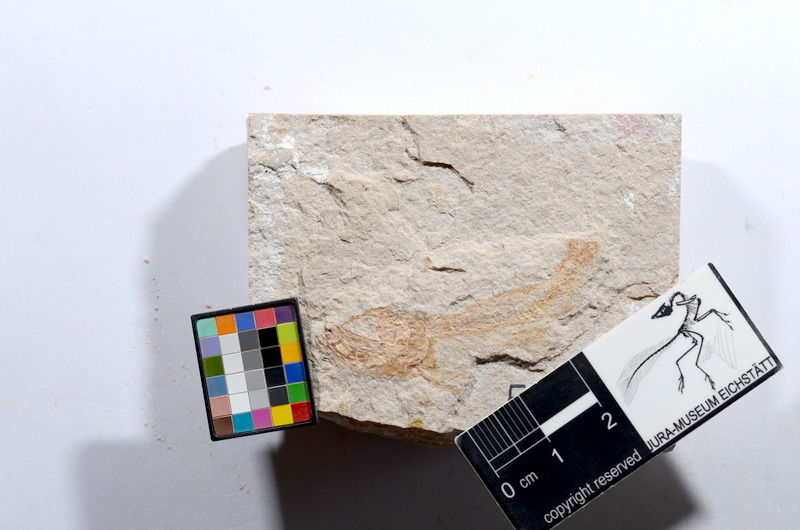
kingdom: Animalia
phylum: Chordata
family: Ascalaboidae
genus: Tharsis
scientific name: Tharsis dubius
